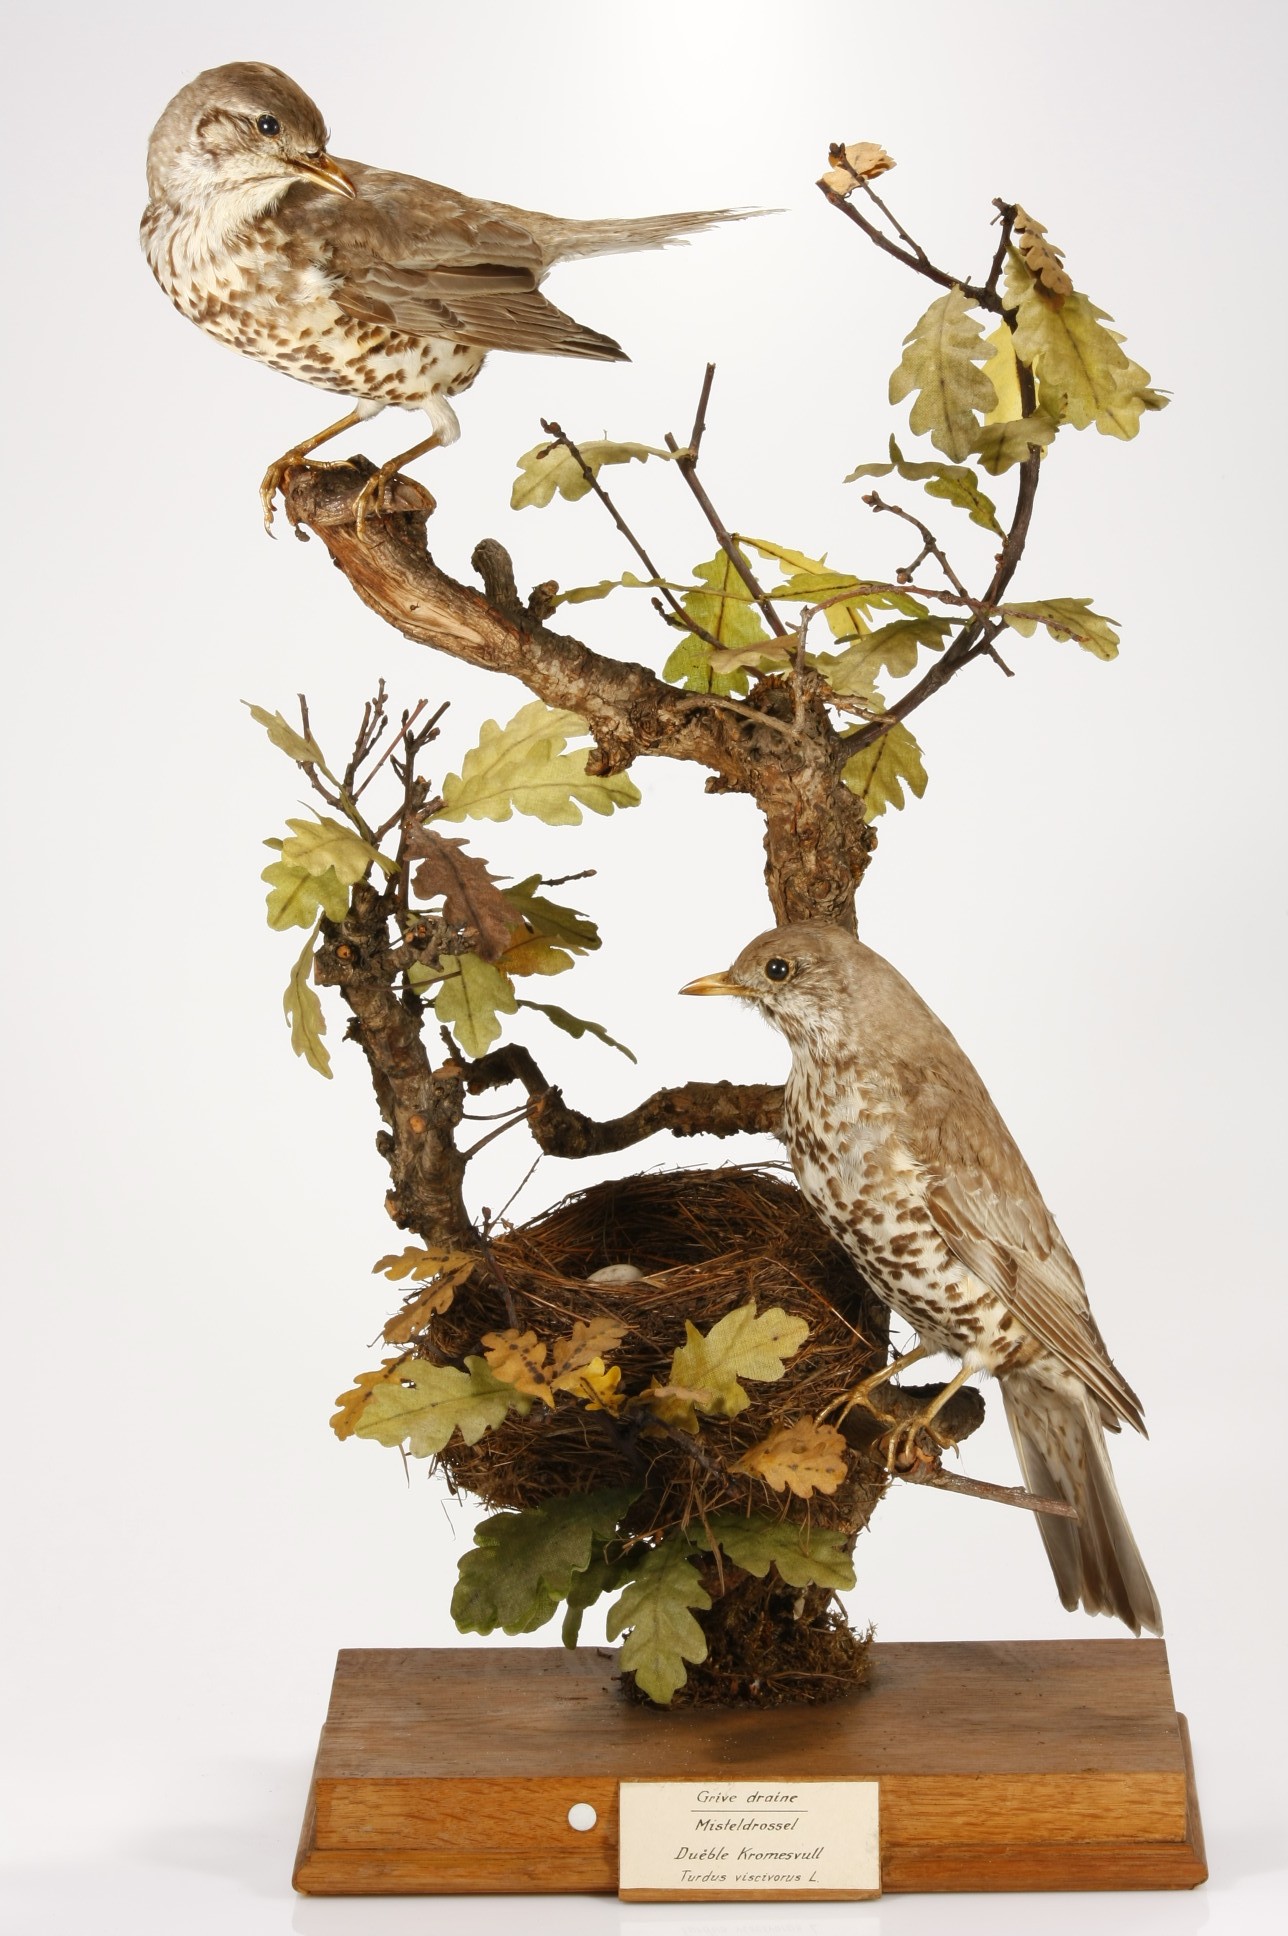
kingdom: Animalia
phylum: Chordata
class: Aves
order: Passeriformes
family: Turdidae
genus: Turdus
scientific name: Turdus viscivorus
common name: Mistle thrush
